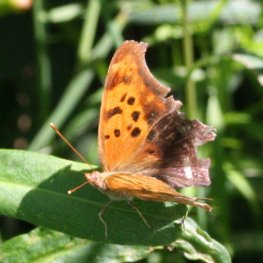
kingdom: Animalia
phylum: Arthropoda
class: Insecta
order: Lepidoptera
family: Nymphalidae
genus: Polygonia
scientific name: Polygonia interrogationis
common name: Question Mark
